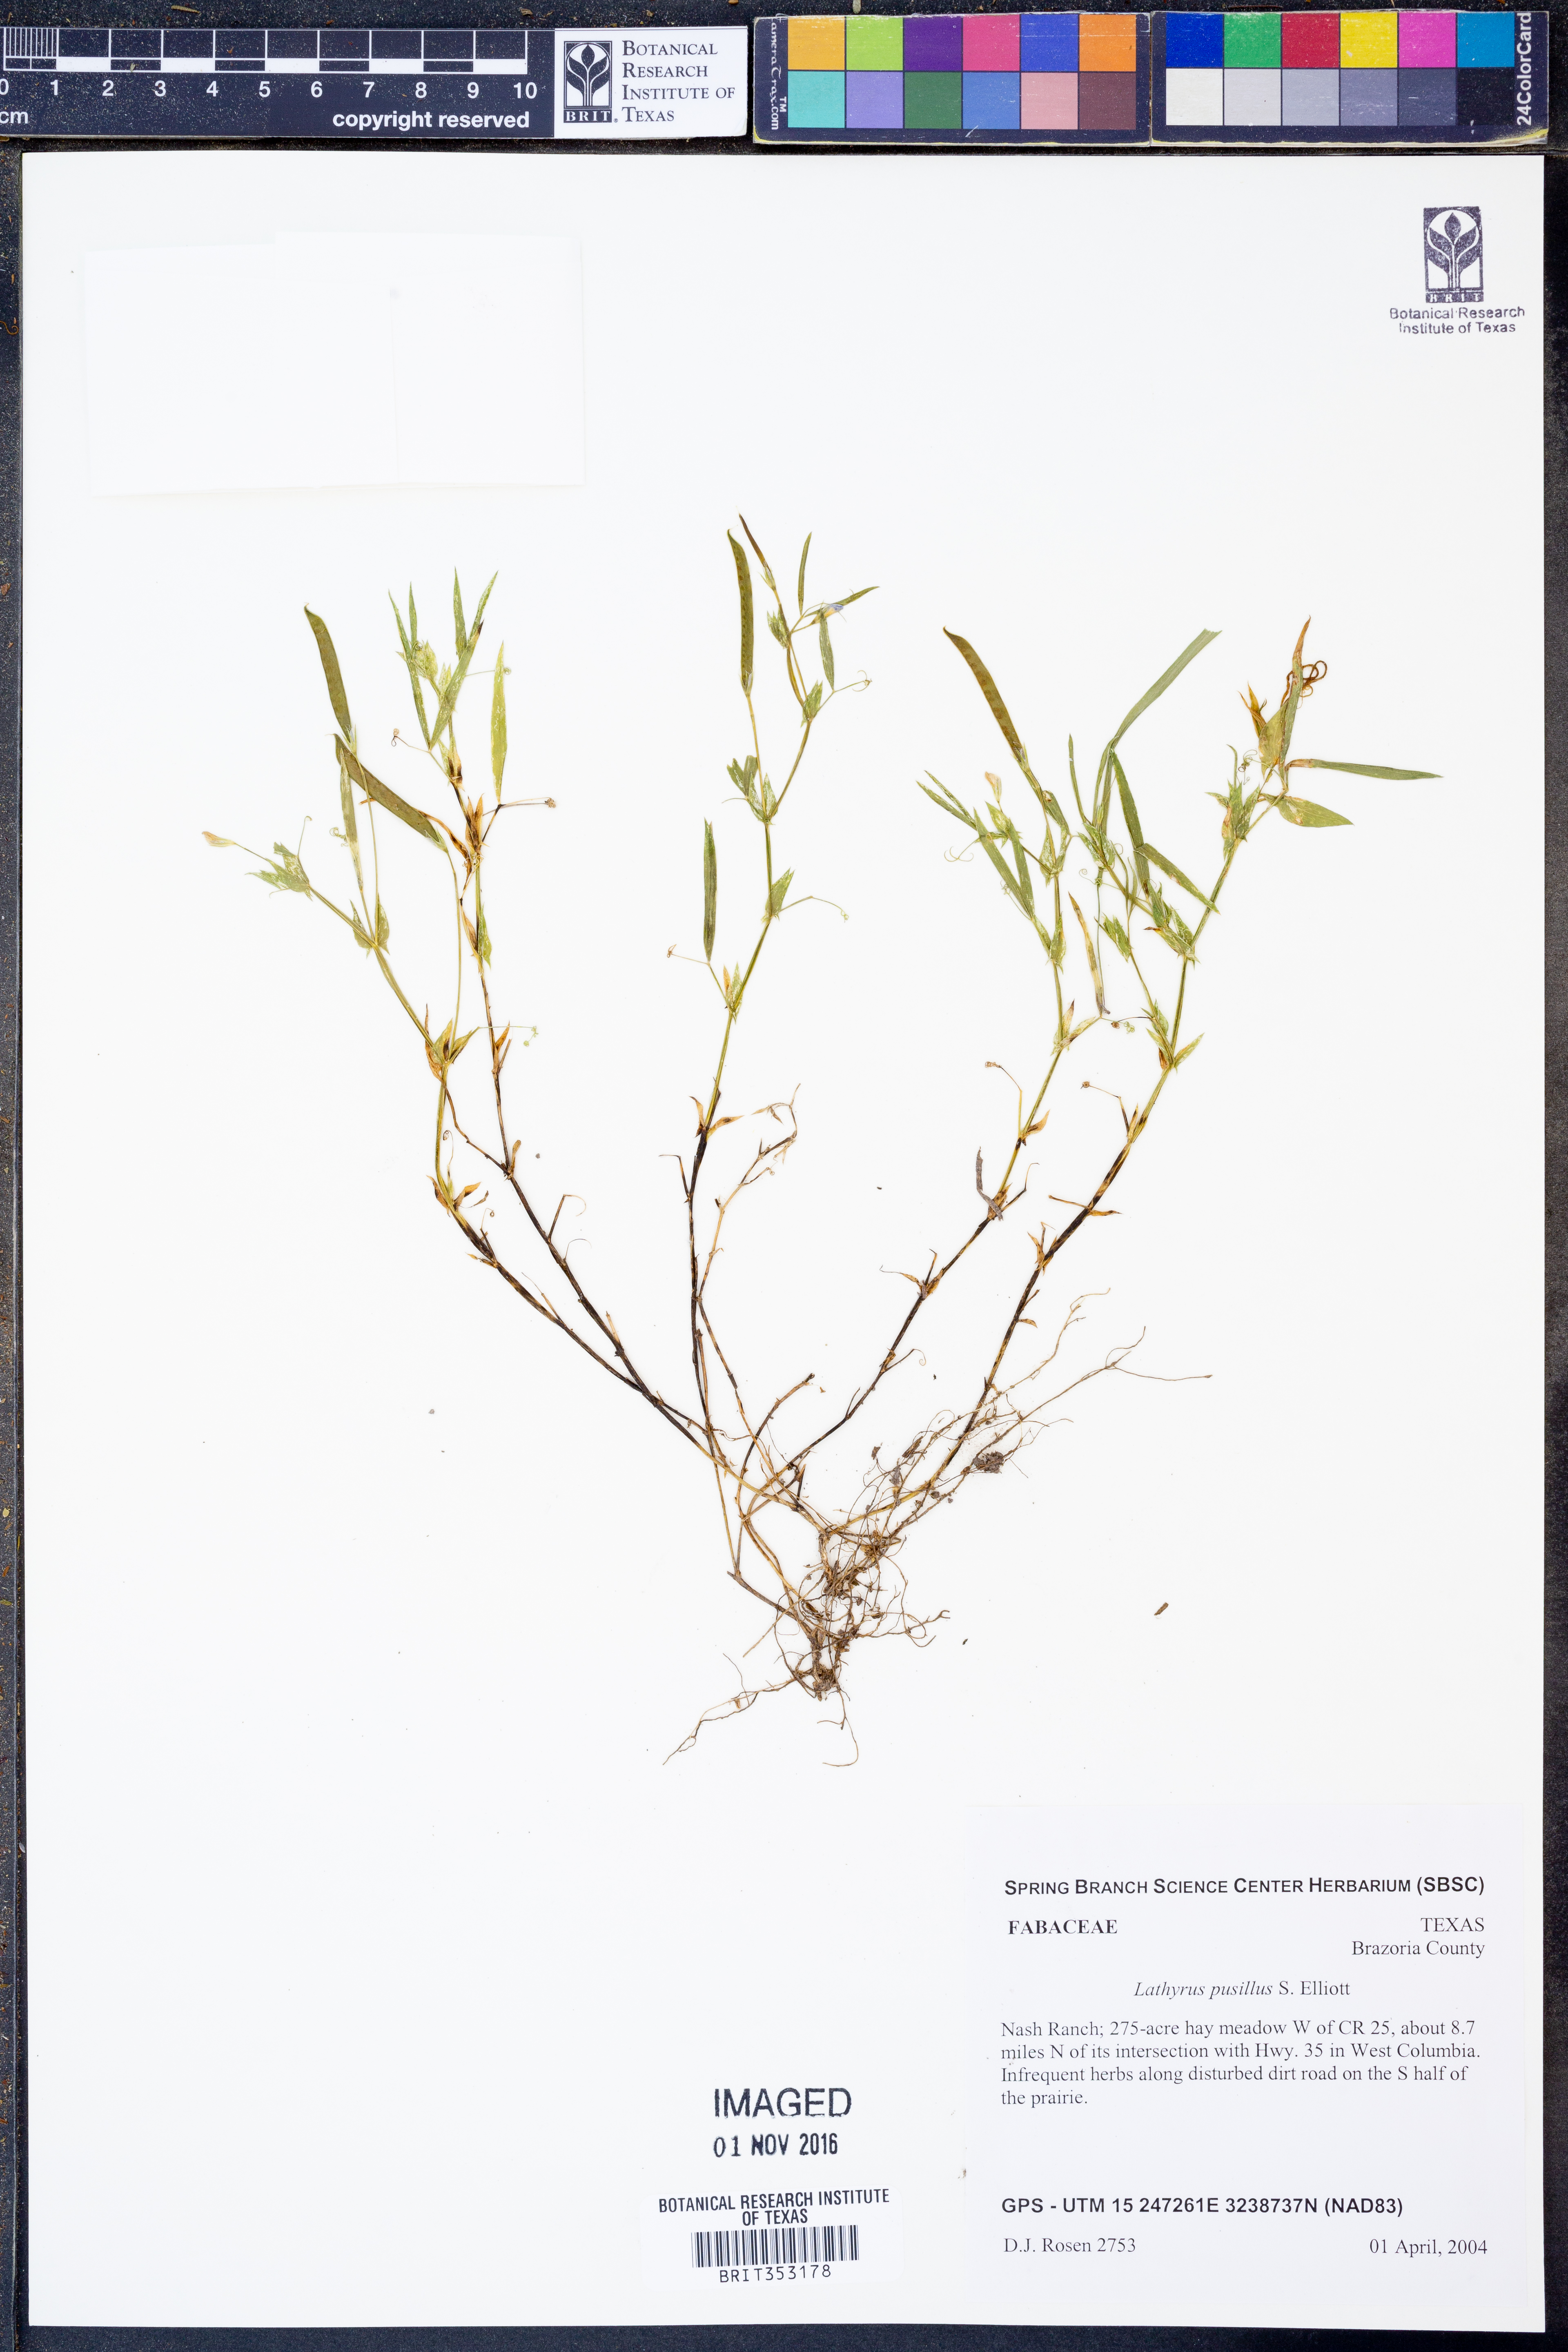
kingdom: Plantae
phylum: Tracheophyta
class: Magnoliopsida
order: Fabales
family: Fabaceae
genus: Lathyrus
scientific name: Lathyrus pusillus
